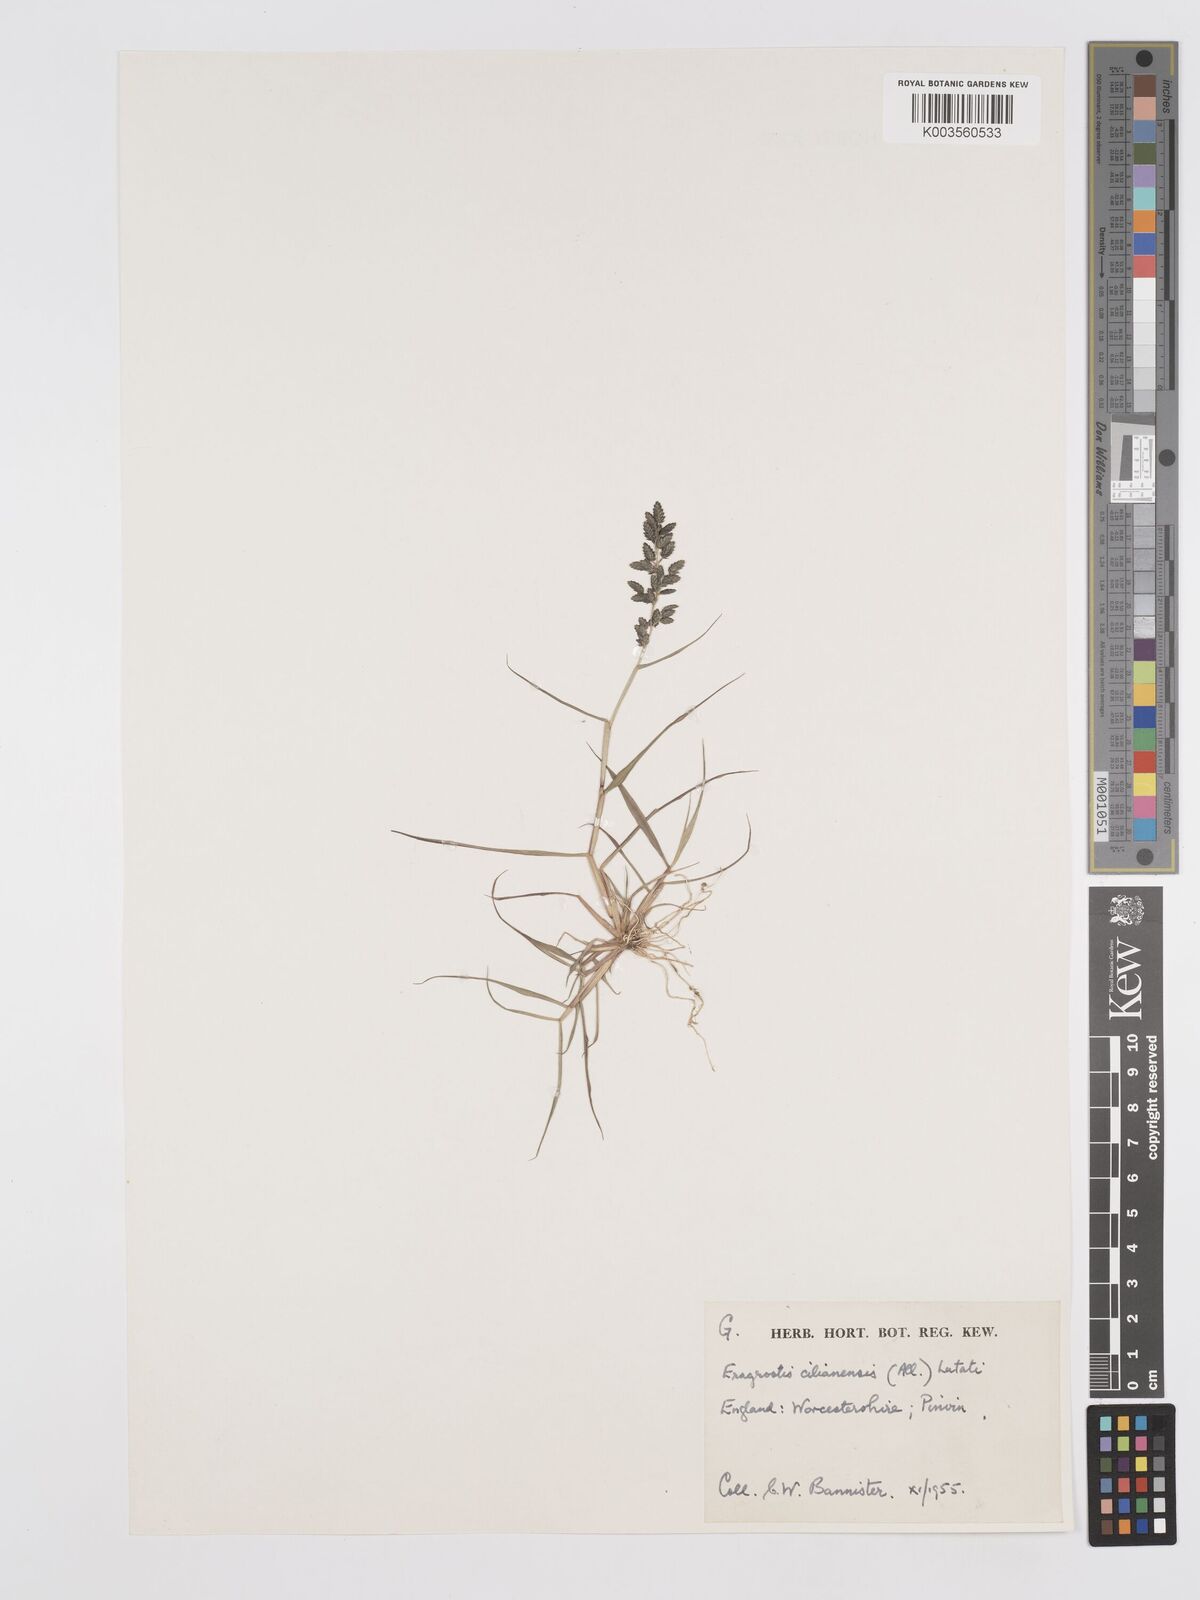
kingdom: Plantae
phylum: Tracheophyta
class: Liliopsida
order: Poales
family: Poaceae
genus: Eragrostis
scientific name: Eragrostis cilianensis
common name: Stinkgrass
